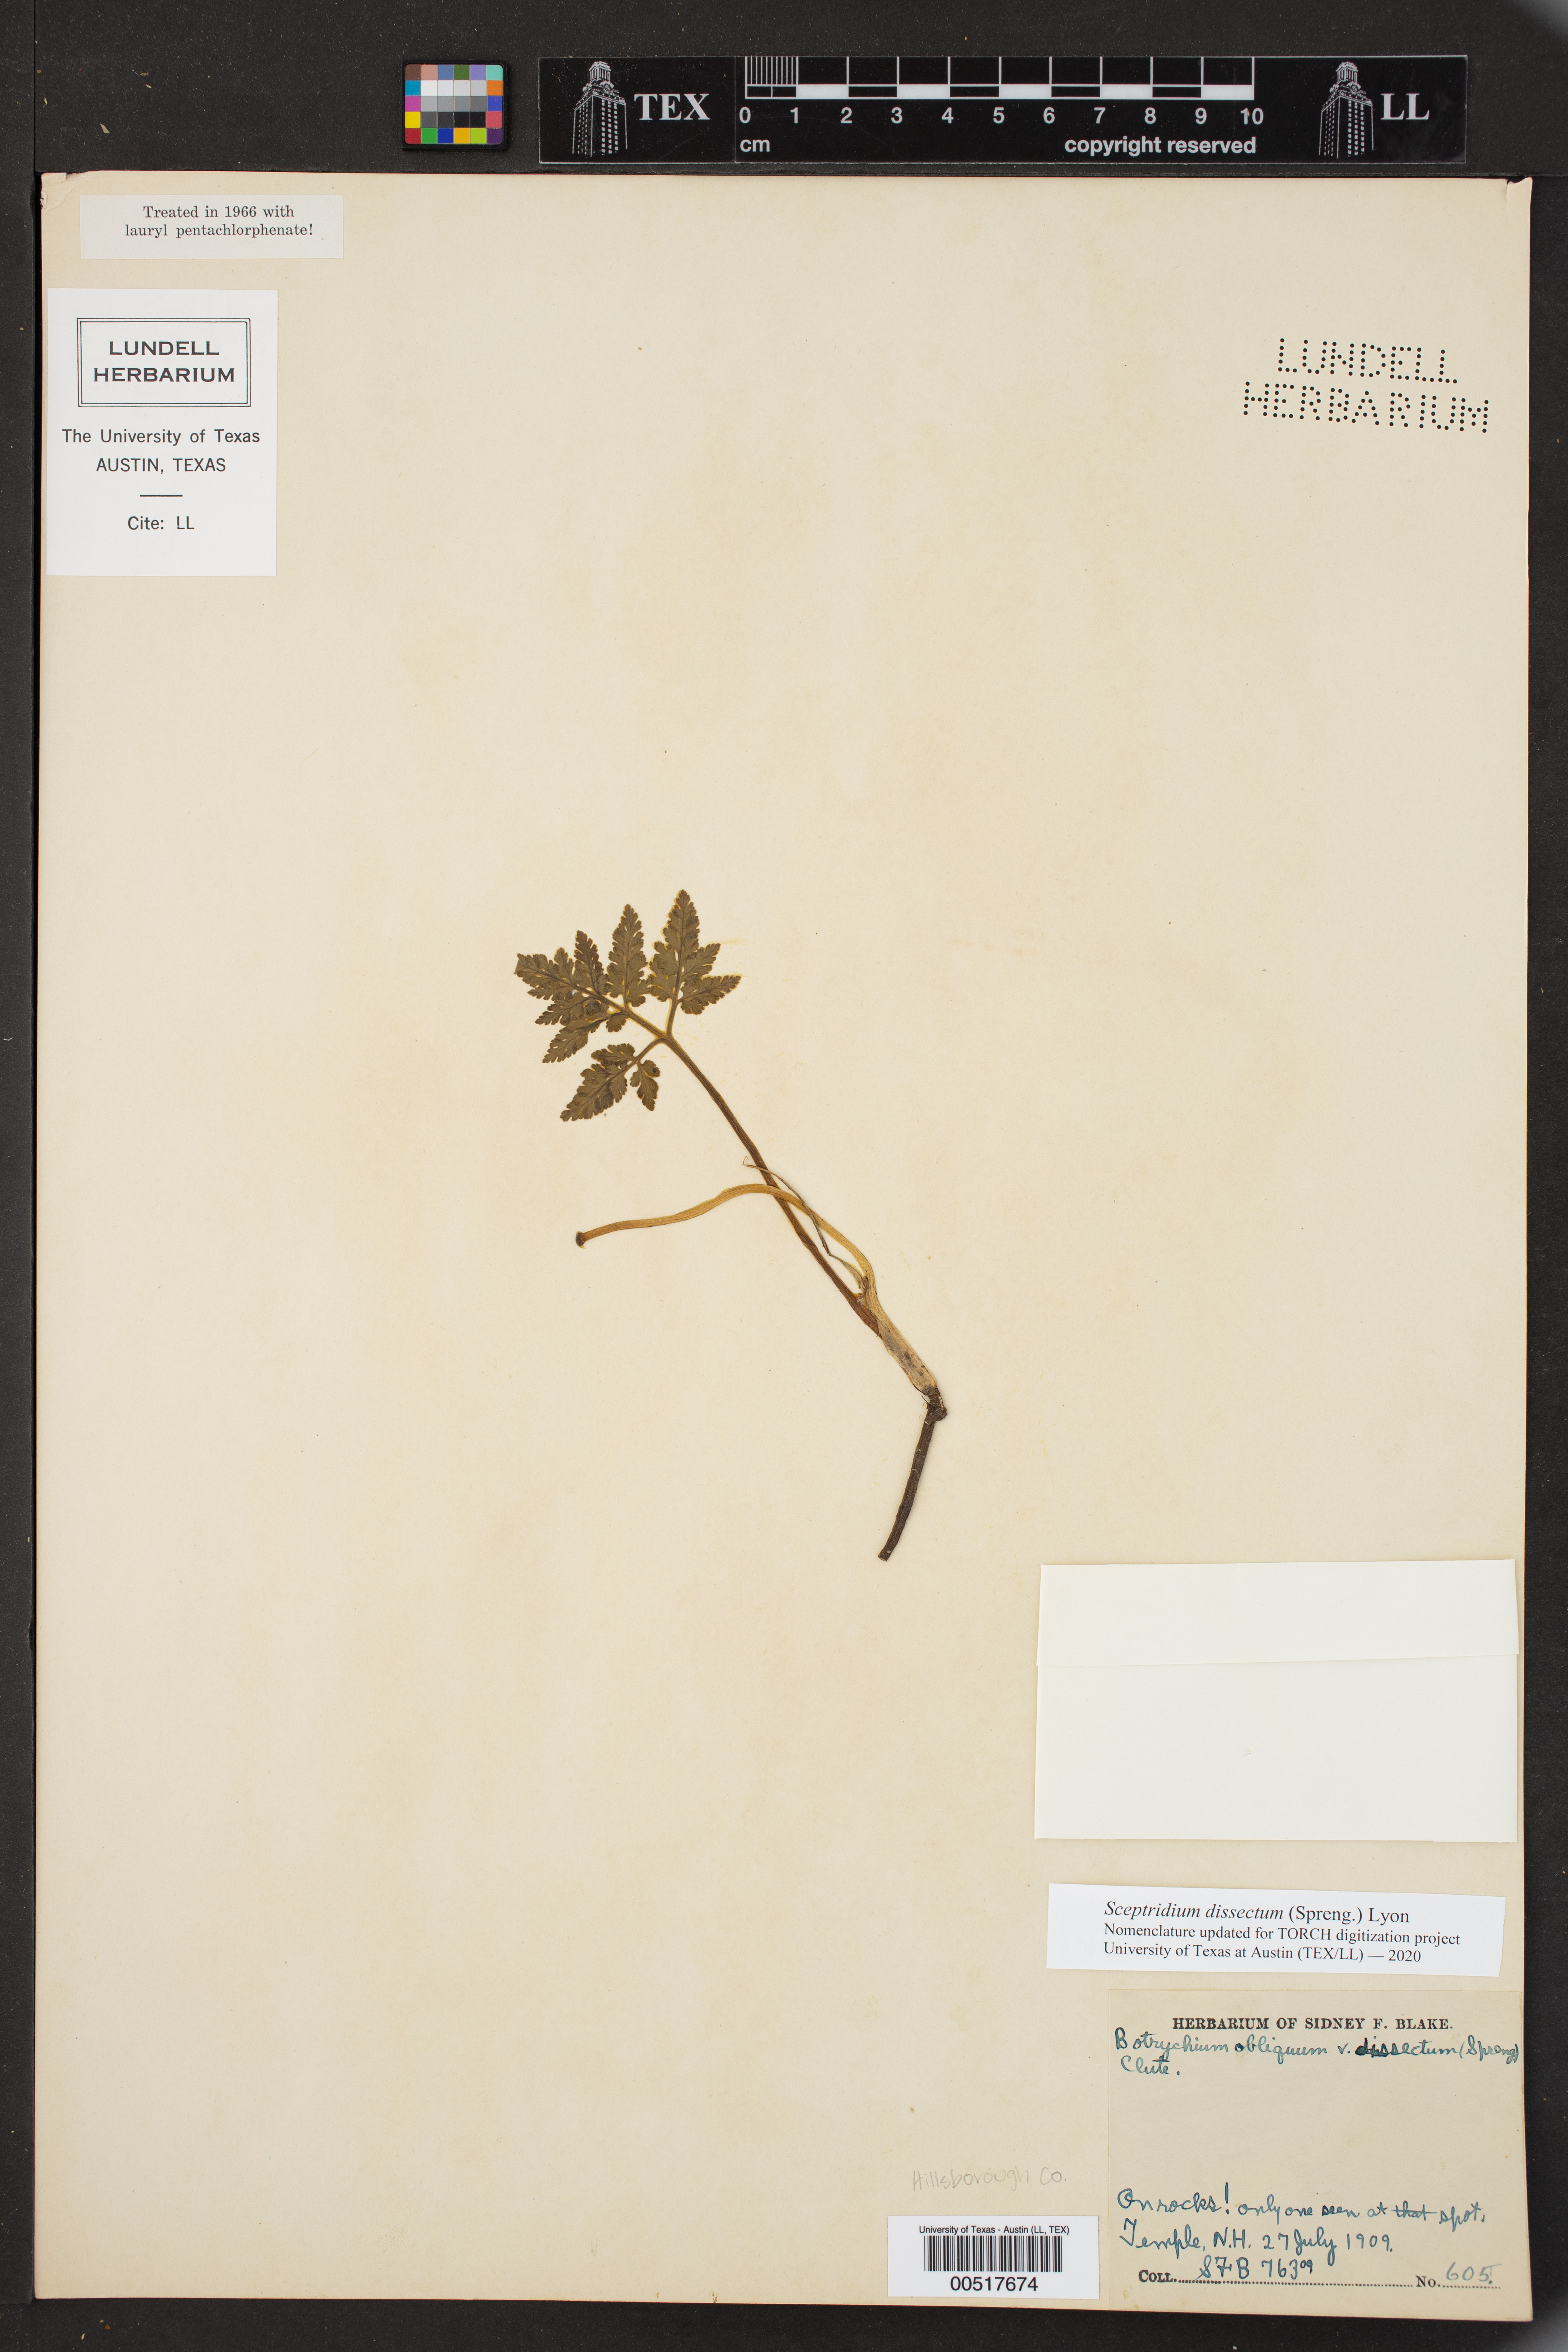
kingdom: Plantae
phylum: Tracheophyta
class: Polypodiopsida
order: Ophioglossales
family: Ophioglossaceae
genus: Sceptridium
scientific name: Sceptridium dissectum
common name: Cut-leaved grapefern
